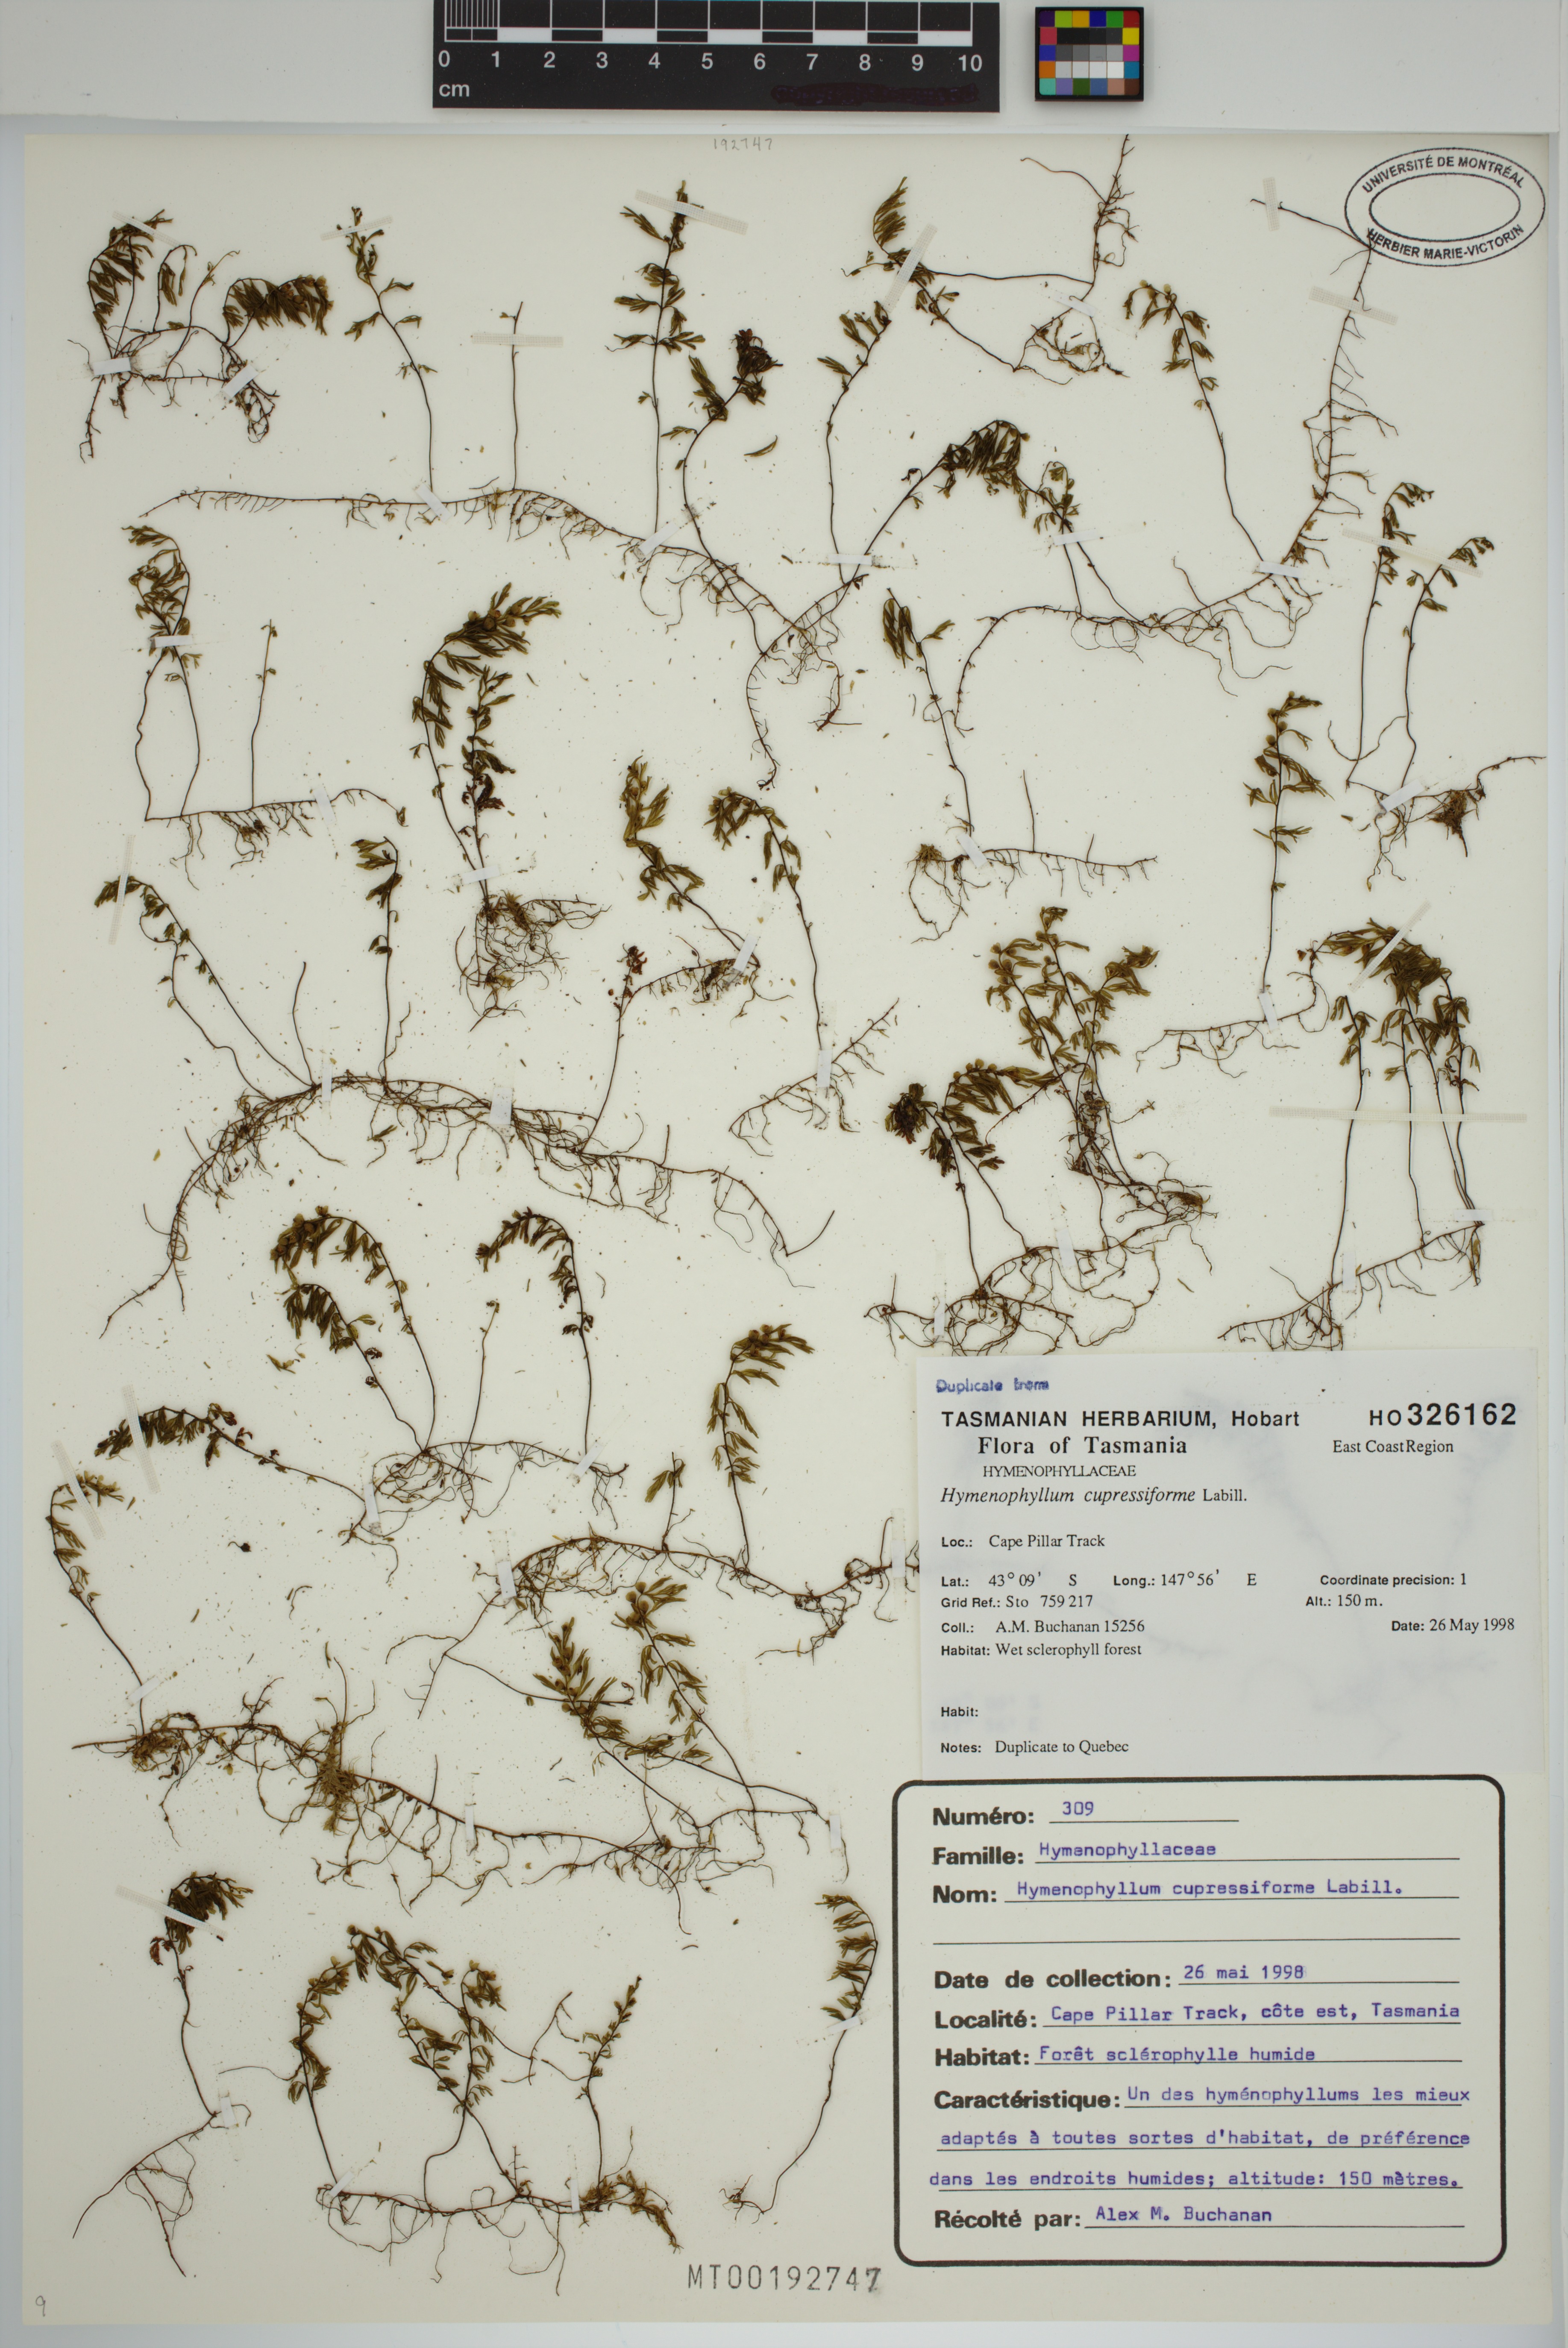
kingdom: Plantae
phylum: Tracheophyta
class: Polypodiopsida
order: Hymenophyllales
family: Hymenophyllaceae
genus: Hymenophyllum
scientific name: Hymenophyllum cupressiforme
